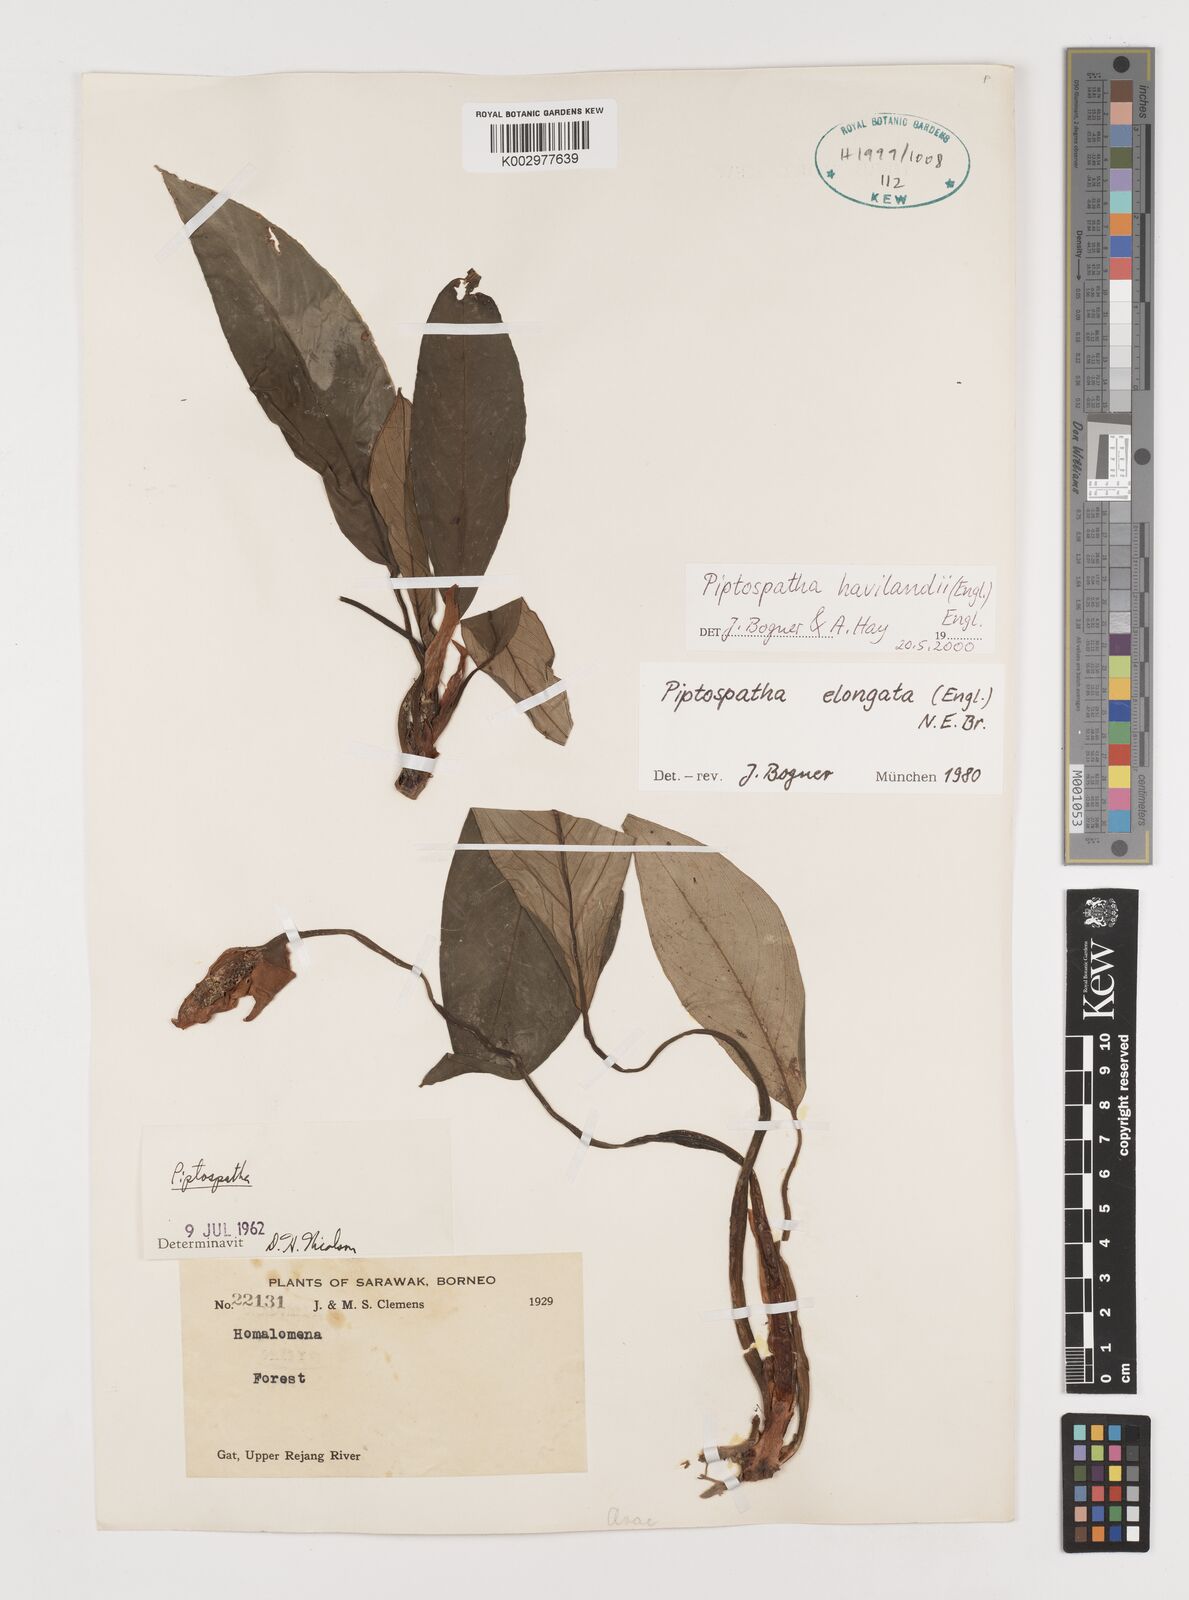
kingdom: Plantae
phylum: Tracheophyta
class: Liliopsida
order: Alismatales
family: Araceae
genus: Ooia
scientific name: Ooia grabowskii
